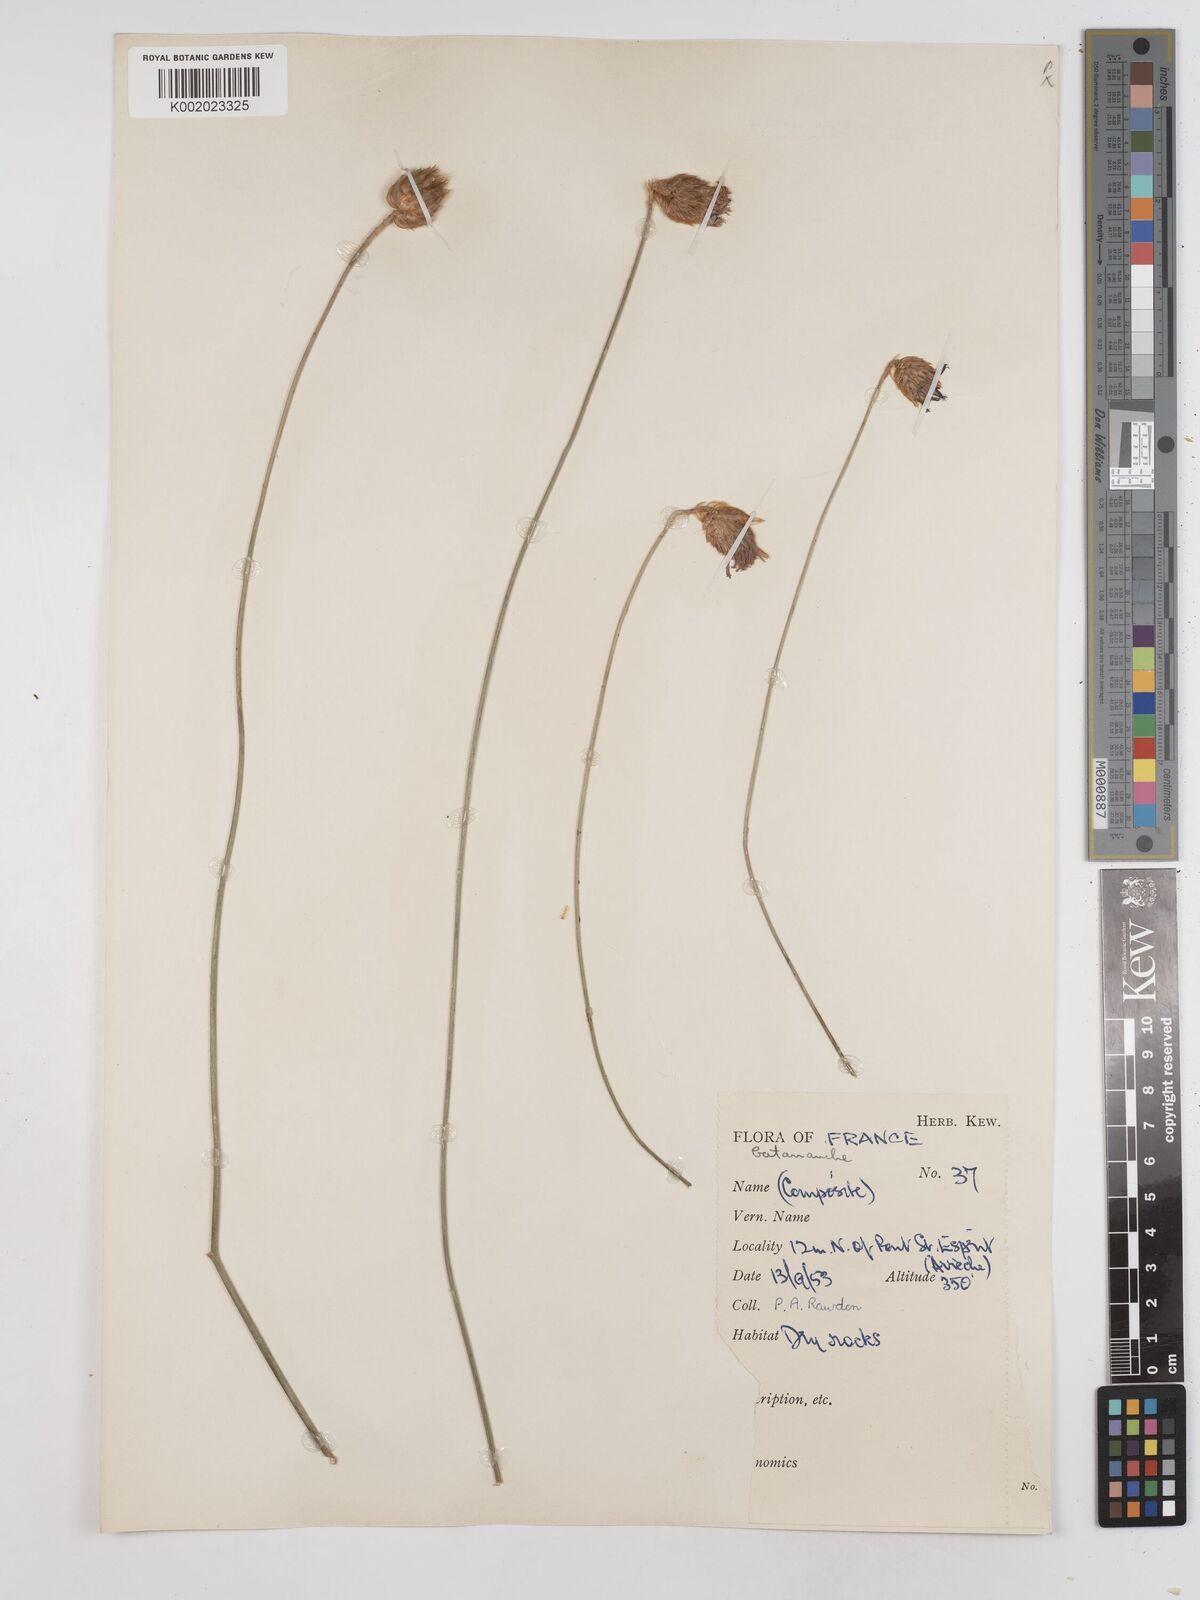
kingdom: Plantae
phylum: Tracheophyta
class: Magnoliopsida
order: Asterales
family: Asteraceae
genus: Catananche
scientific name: Catananche caerulea
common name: Blue cupidone
